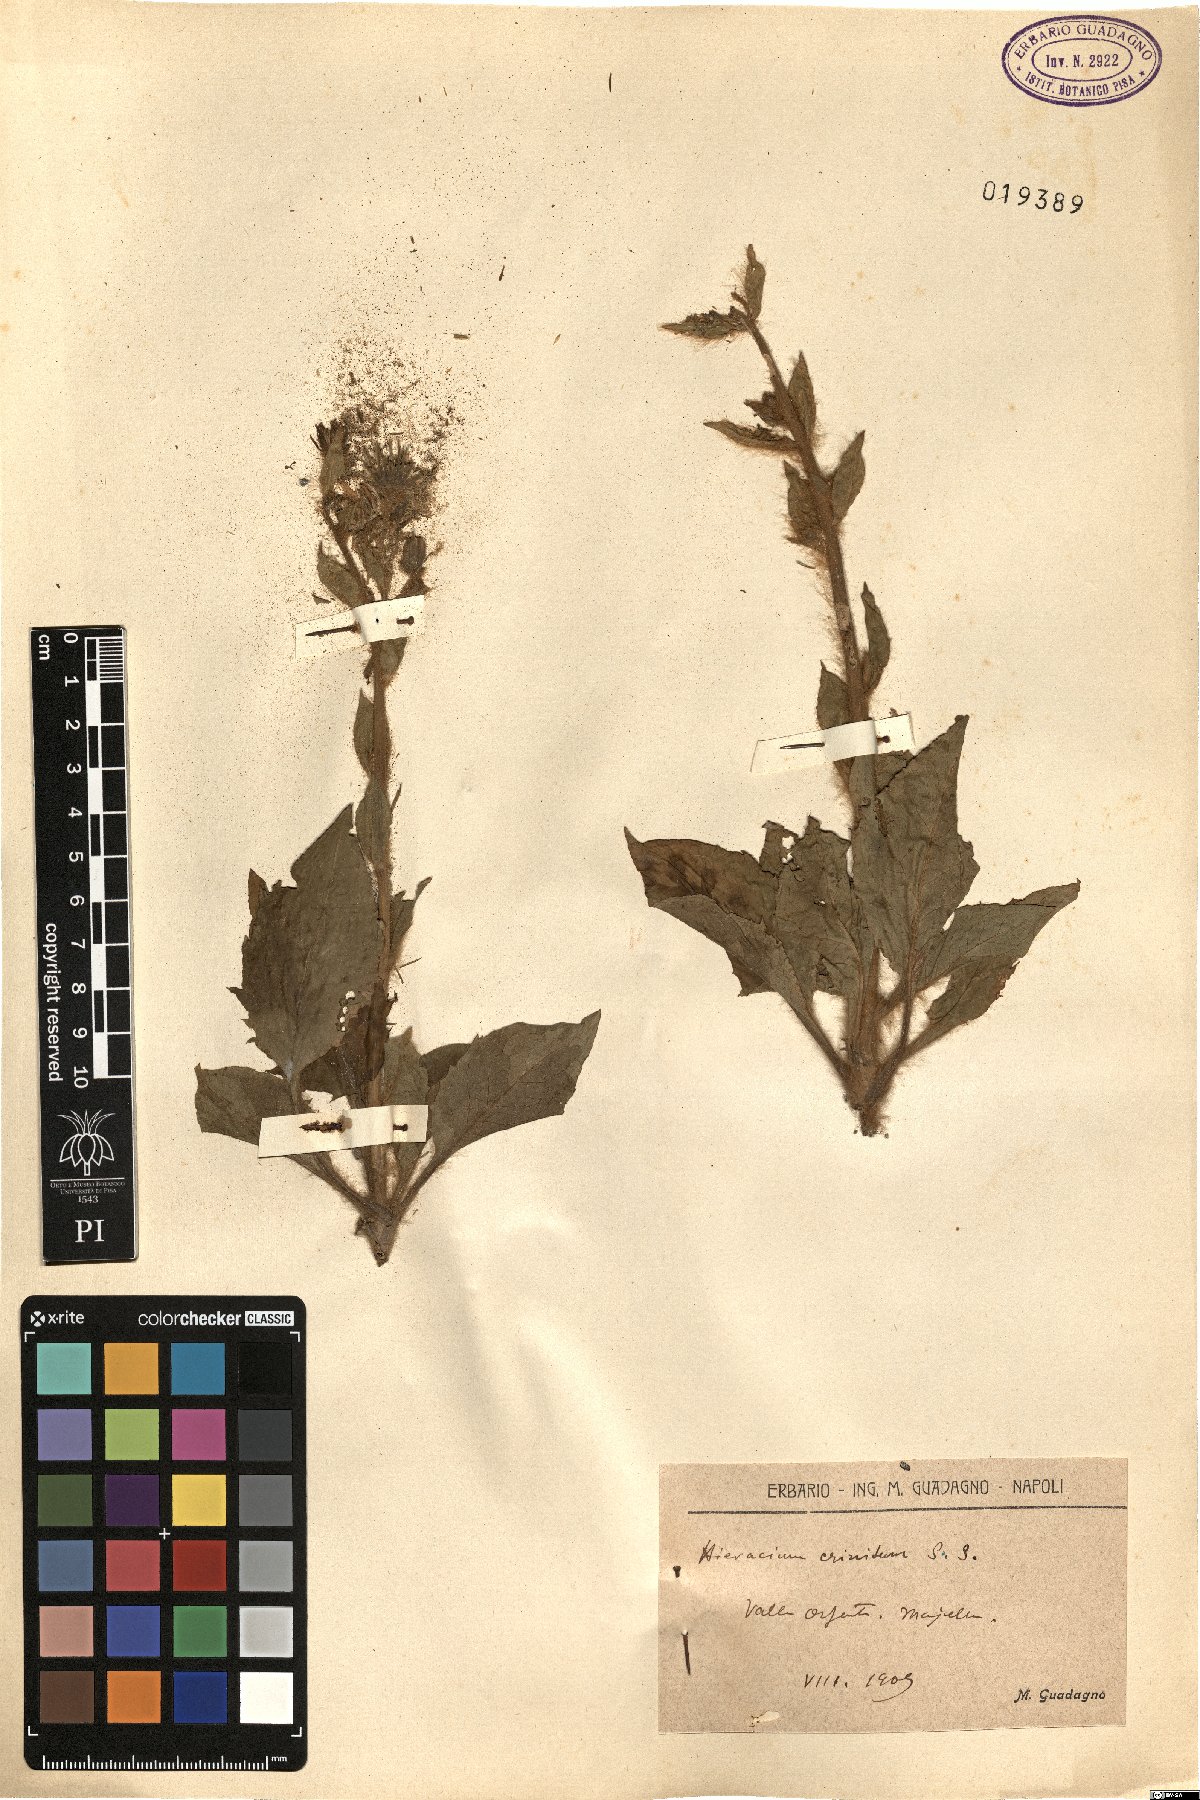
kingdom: Plantae
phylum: Tracheophyta
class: Magnoliopsida
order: Asterales
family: Asteraceae
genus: Hieracium
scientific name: Hieracium racemosum
